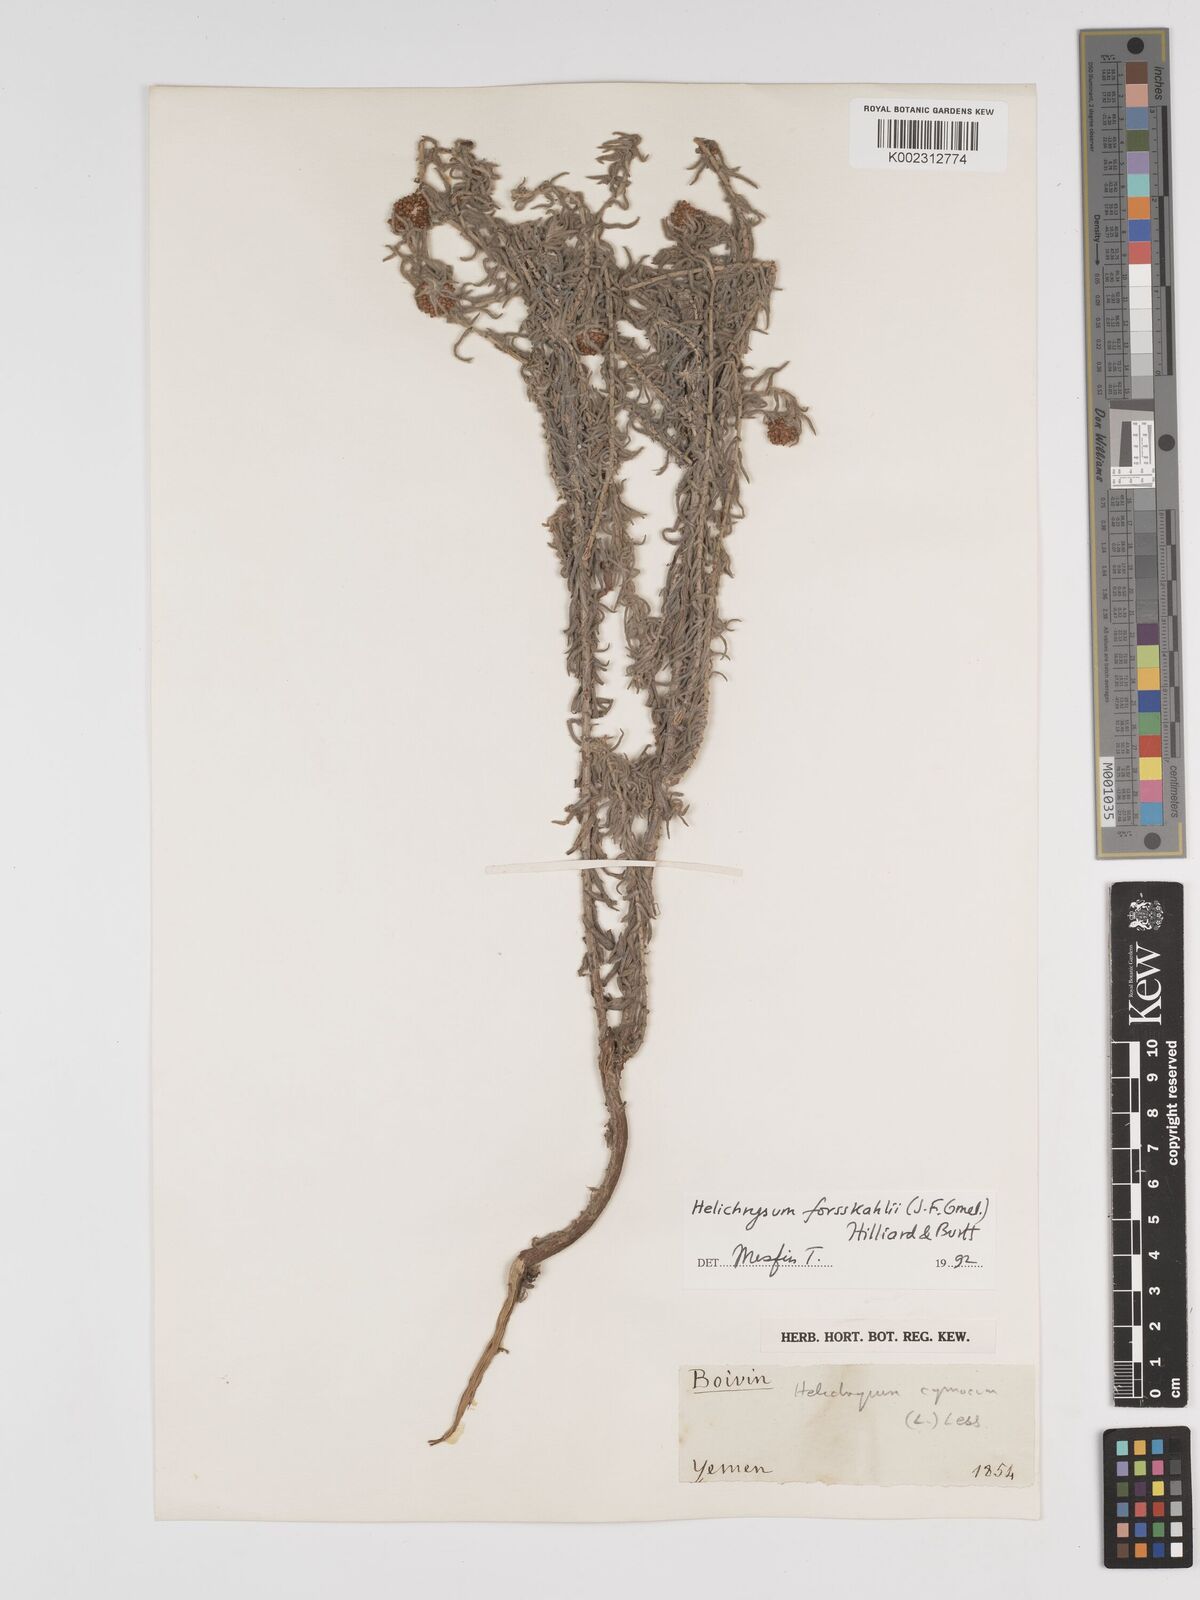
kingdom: Plantae
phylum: Tracheophyta
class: Magnoliopsida
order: Asterales
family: Asteraceae
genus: Helichrysum
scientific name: Helichrysum cymosum
